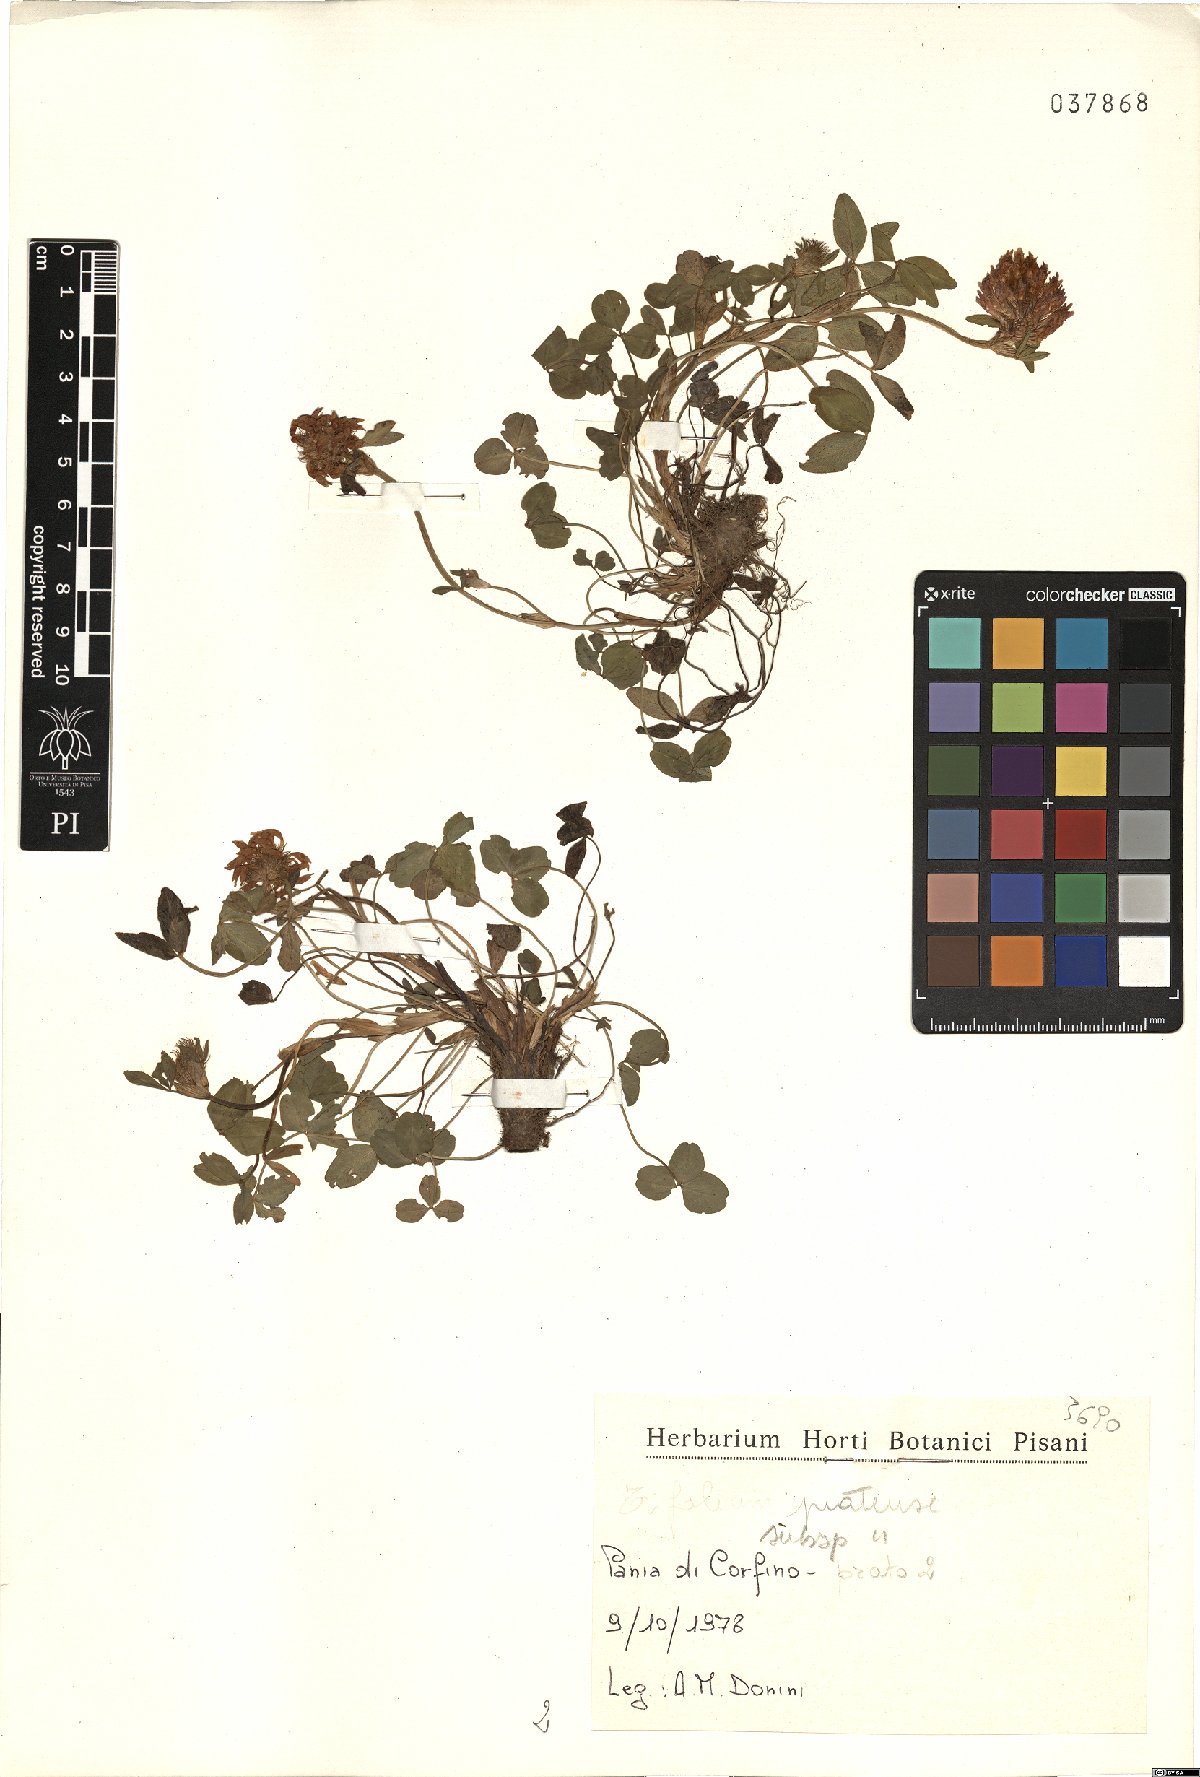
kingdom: Plantae
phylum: Tracheophyta
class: Magnoliopsida
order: Fabales
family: Fabaceae
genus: Trifolium
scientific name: Trifolium pratense
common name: Red clover
